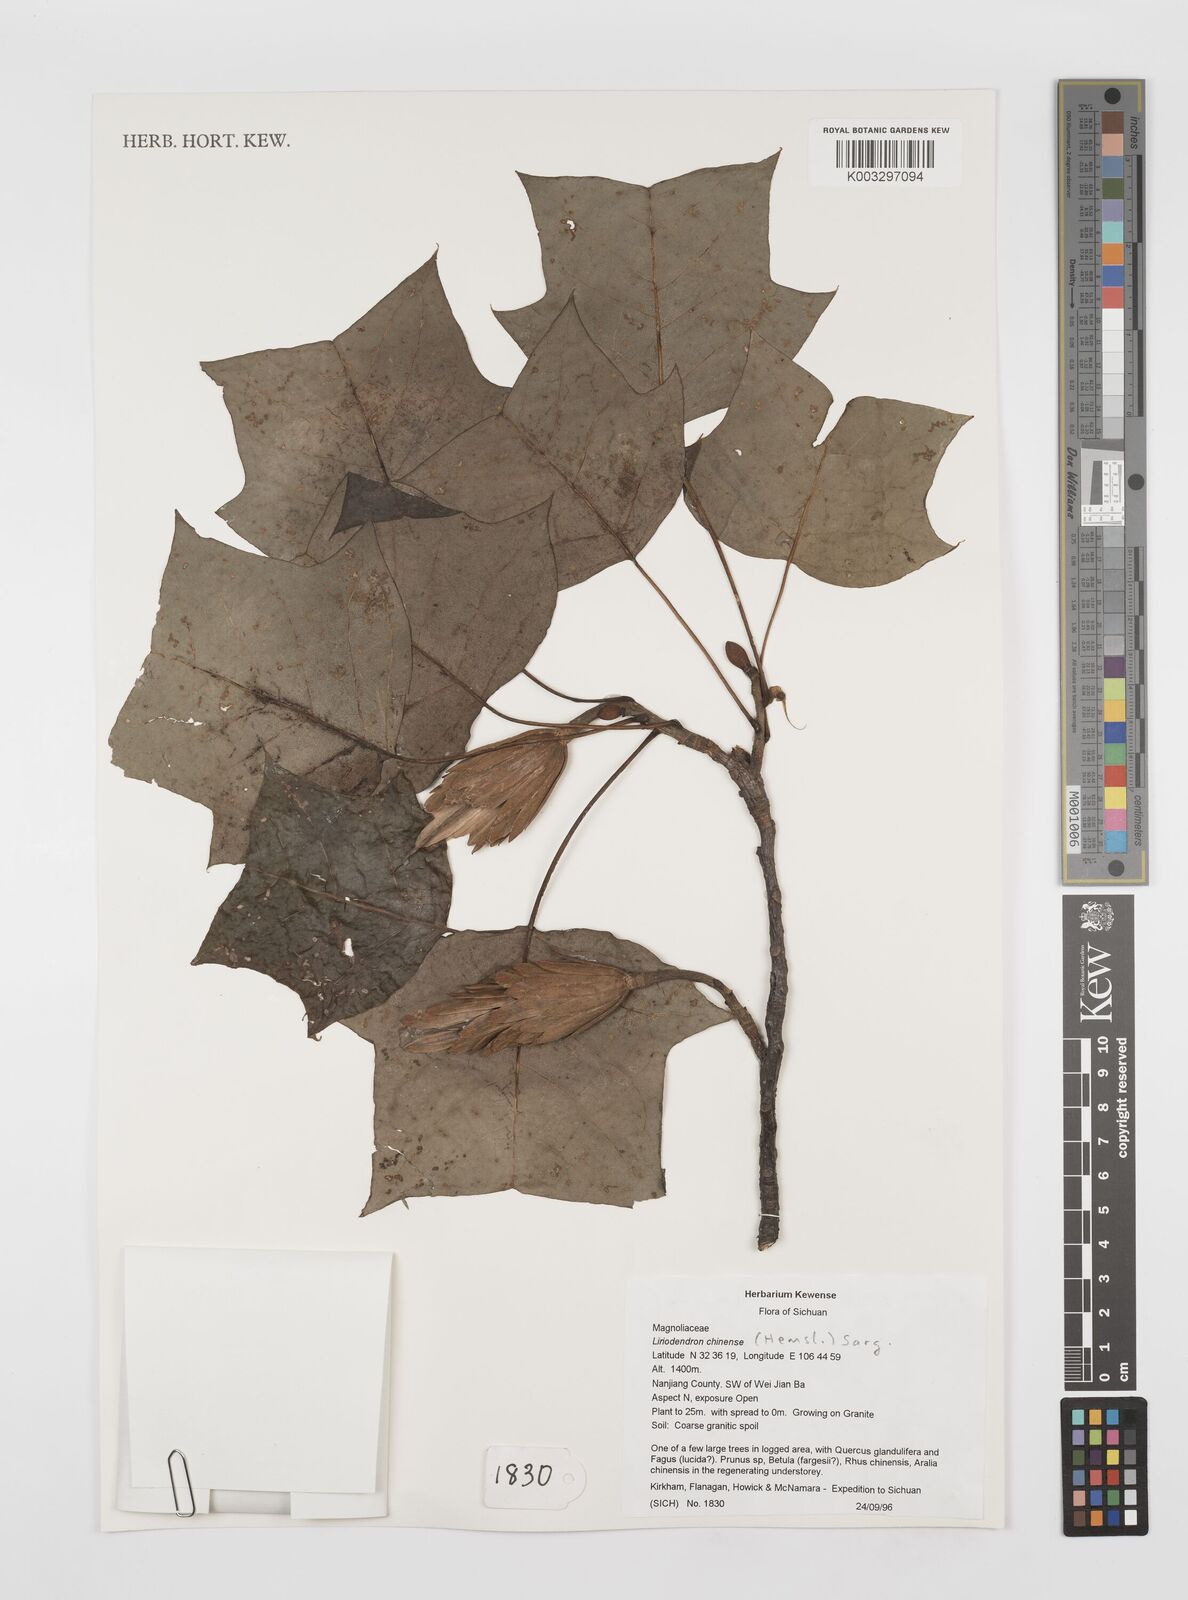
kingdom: Plantae
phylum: Tracheophyta
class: Magnoliopsida
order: Magnoliales
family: Magnoliaceae
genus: Liriodendron
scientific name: Liriodendron chinense
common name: Chinese tuliptree
